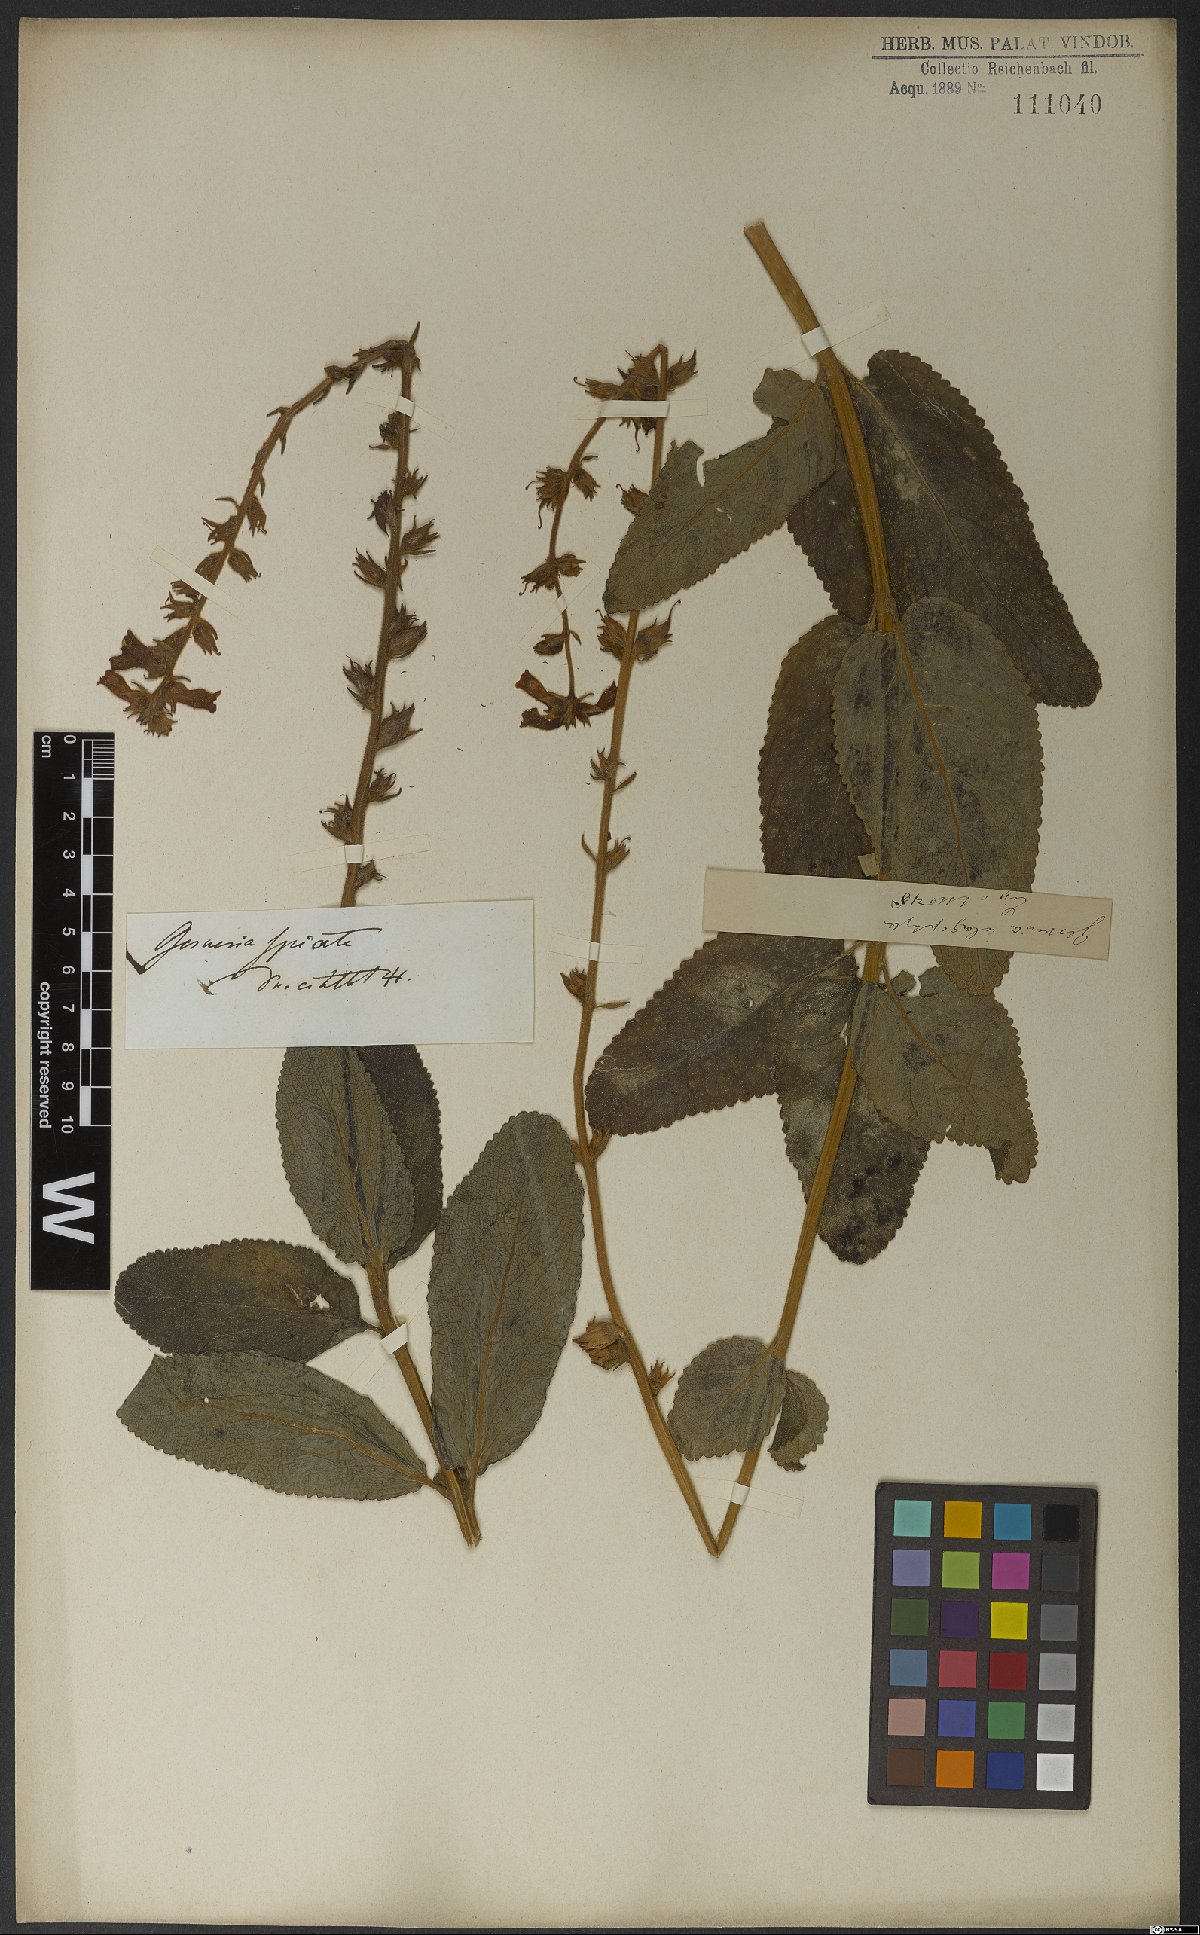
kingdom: Plantae
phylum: Tracheophyta
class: Magnoliopsida
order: Lamiales
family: Gesneriaceae
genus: Sinningia
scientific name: Sinningia allagophylla
